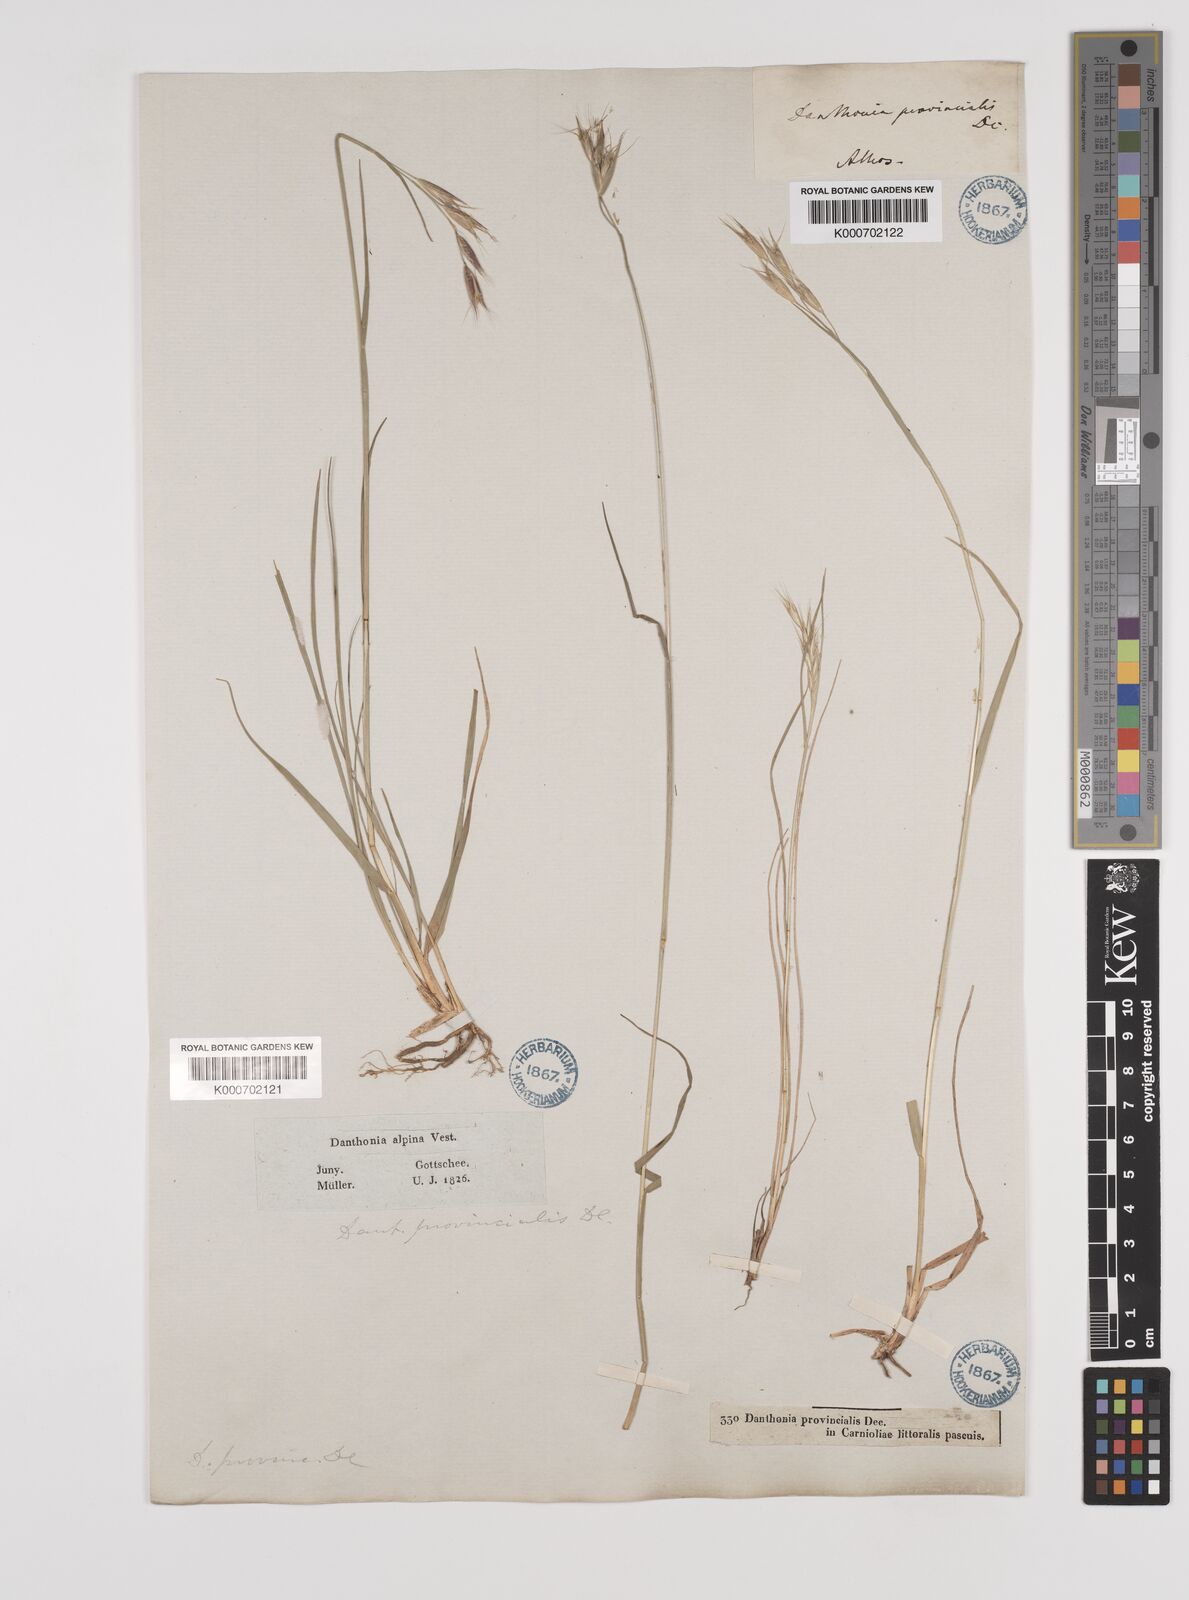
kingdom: Plantae
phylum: Tracheophyta
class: Liliopsida
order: Poales
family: Poaceae
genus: Danthonia
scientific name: Danthonia alpina
